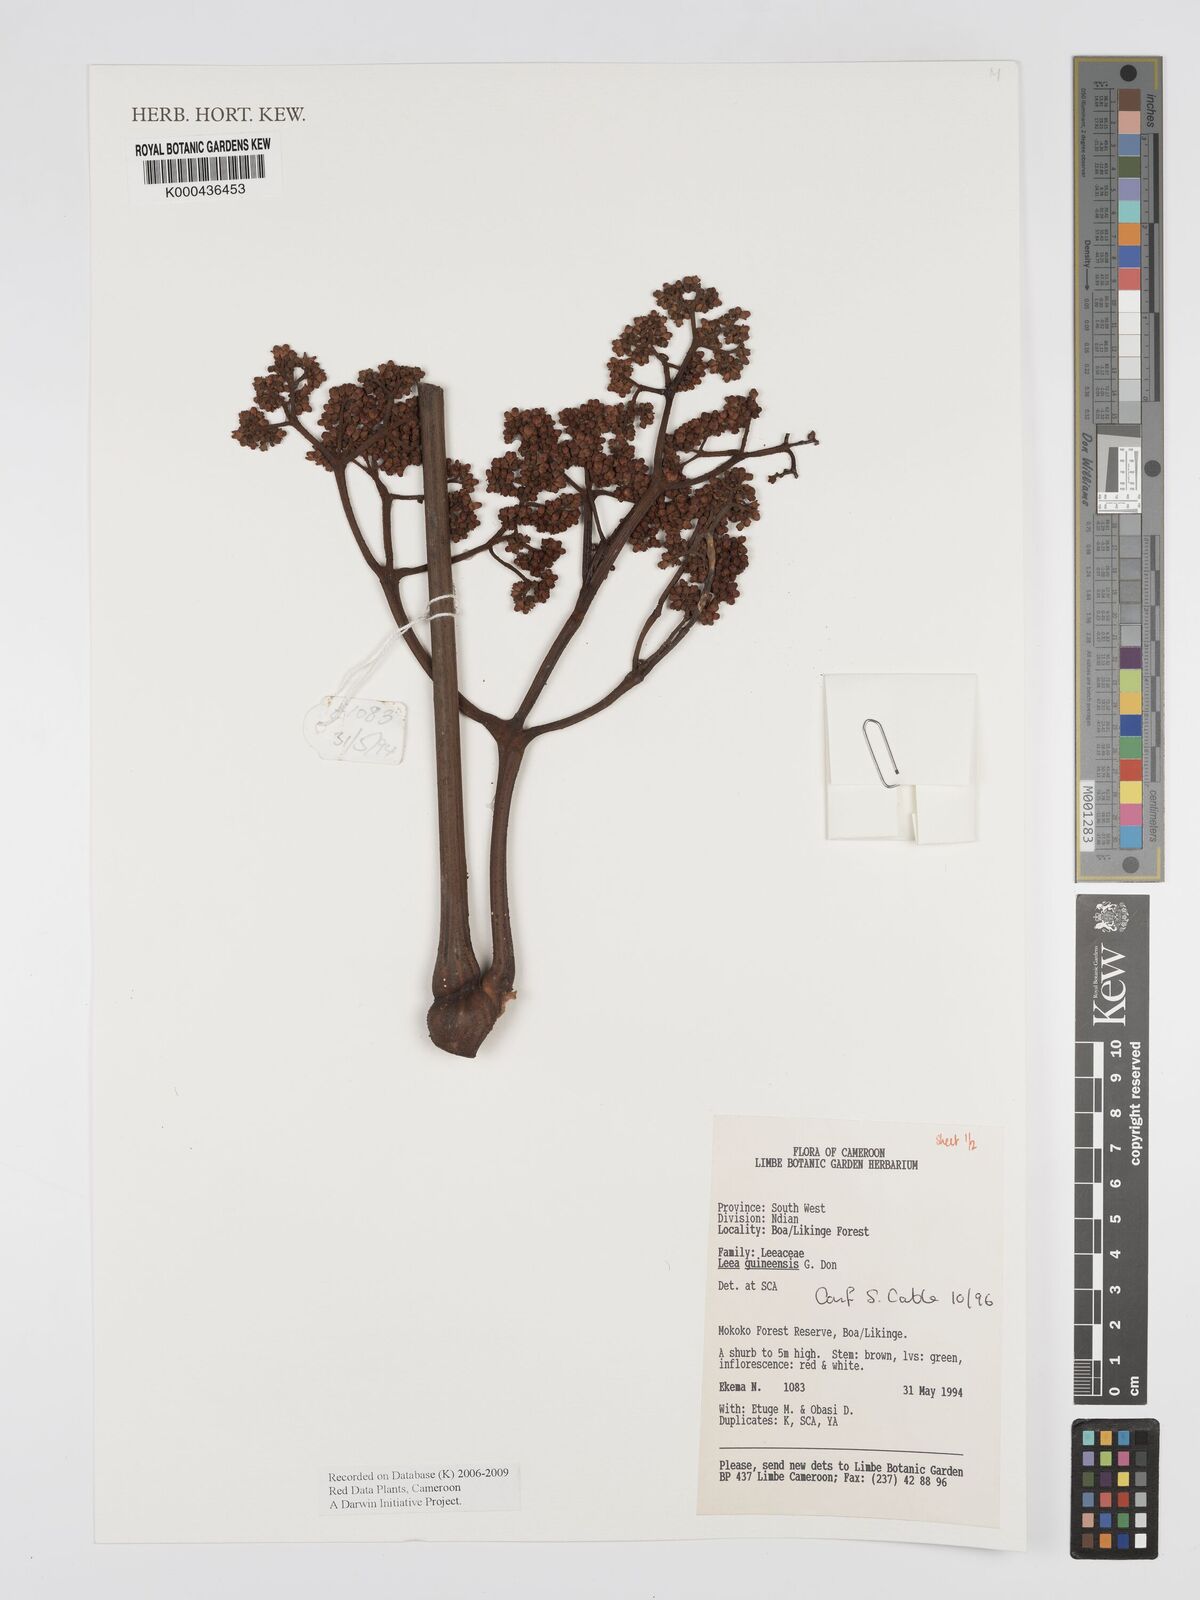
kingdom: Plantae
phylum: Tracheophyta
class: Magnoliopsida
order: Vitales
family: Vitaceae
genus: Leea
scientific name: Leea guineensis
